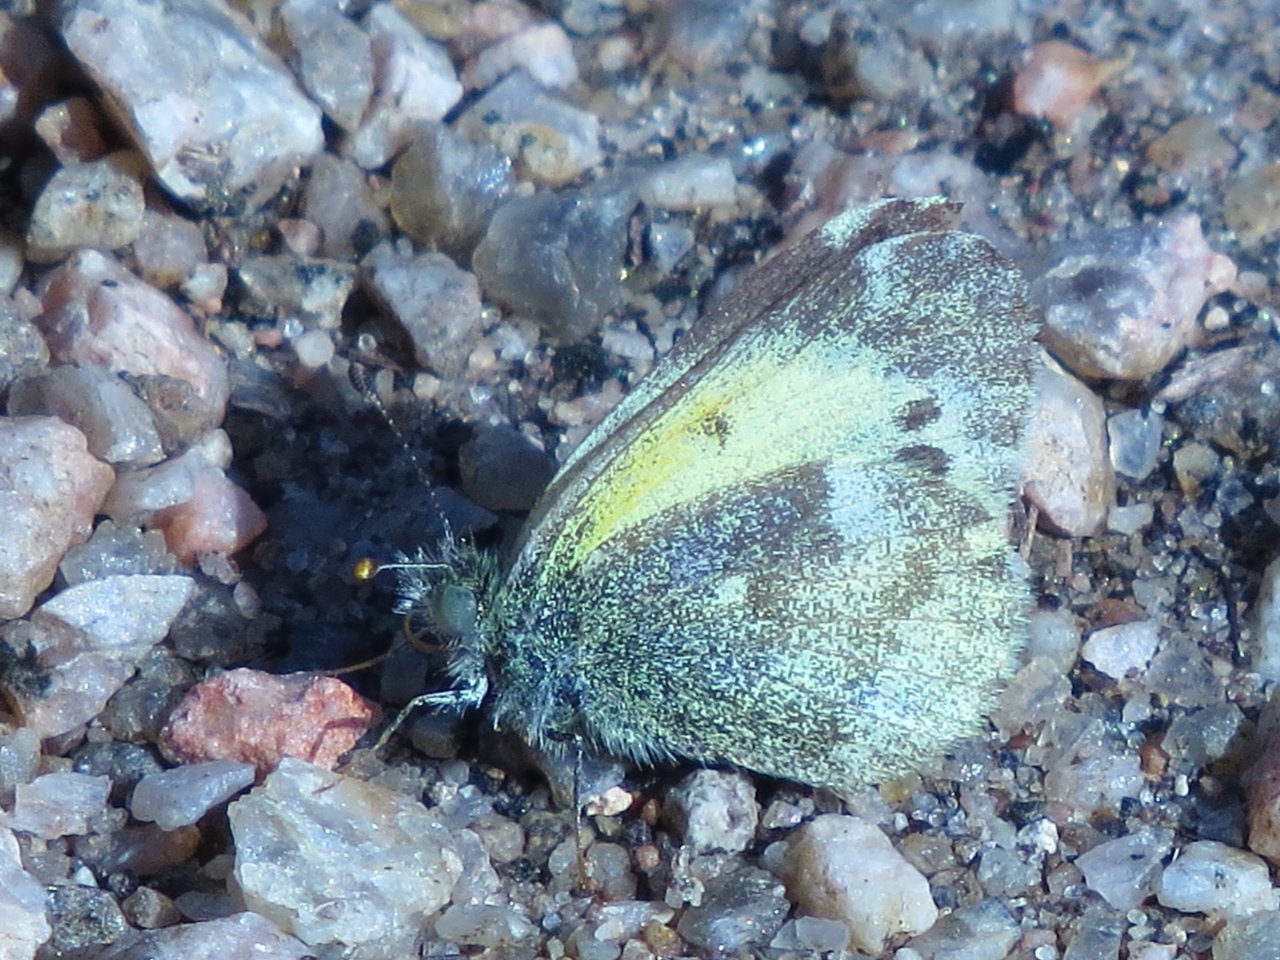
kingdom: Animalia
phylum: Arthropoda
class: Insecta
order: Lepidoptera
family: Pieridae
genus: Nathalis
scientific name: Nathalis iole
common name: Dainty Sulphur
